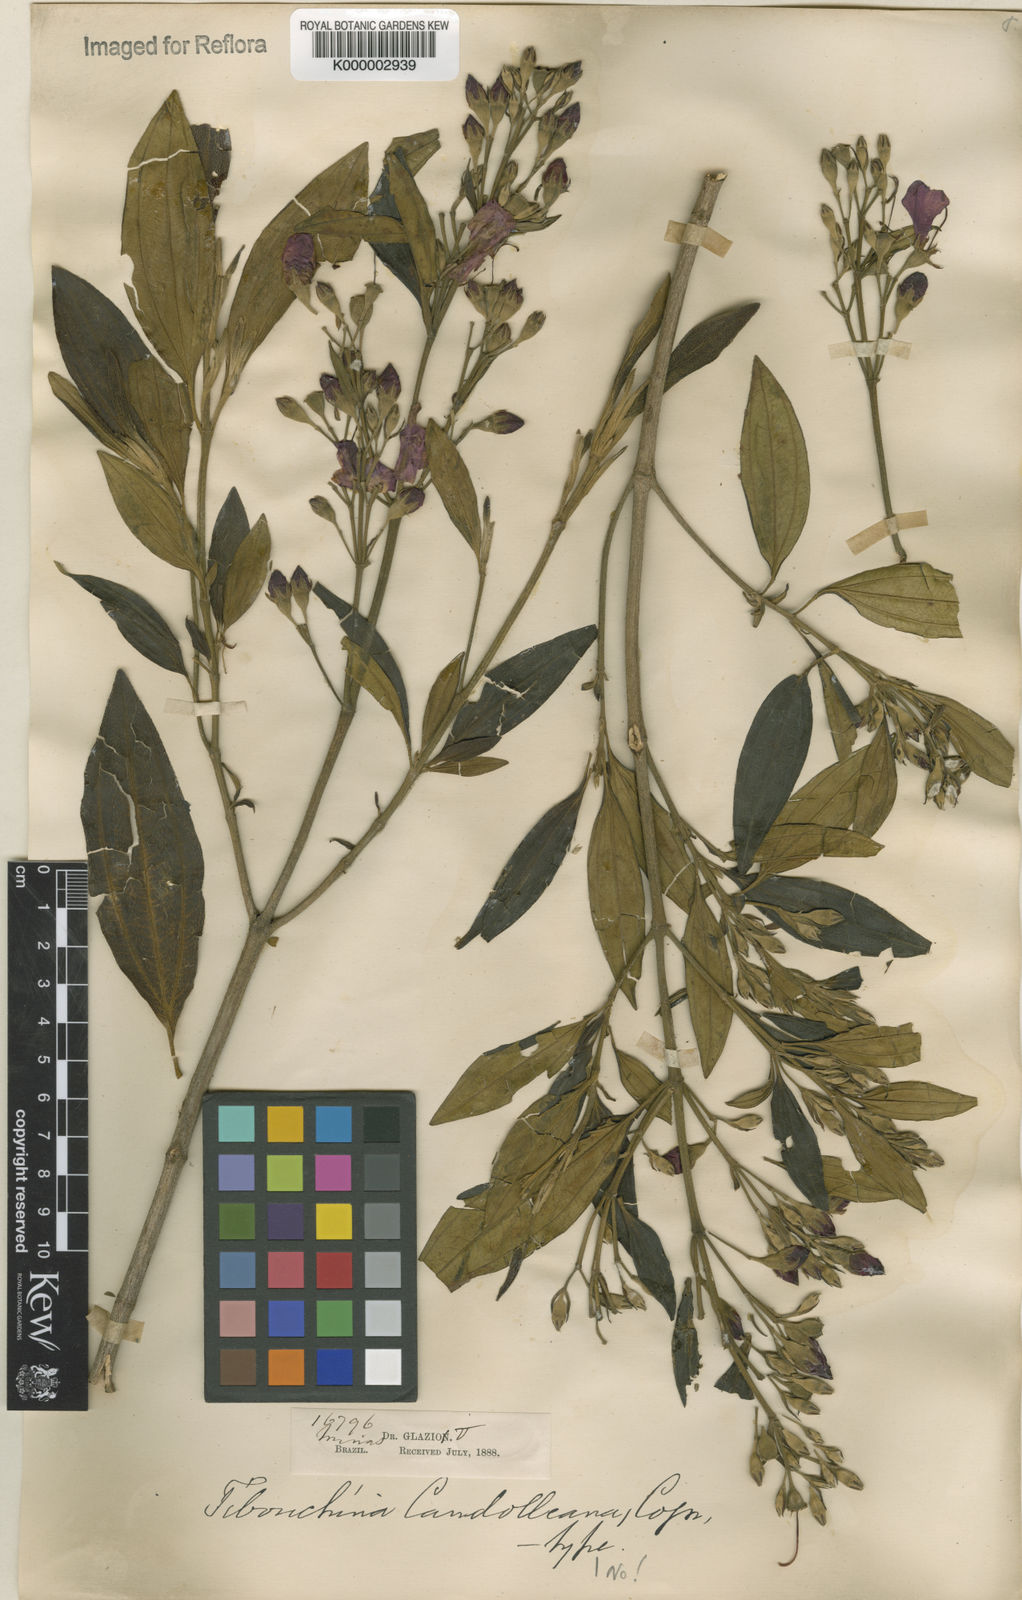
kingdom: Plantae
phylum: Tracheophyta
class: Magnoliopsida
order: Myrtales
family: Melastomataceae
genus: Pleroma
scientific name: Pleroma candolleanum
